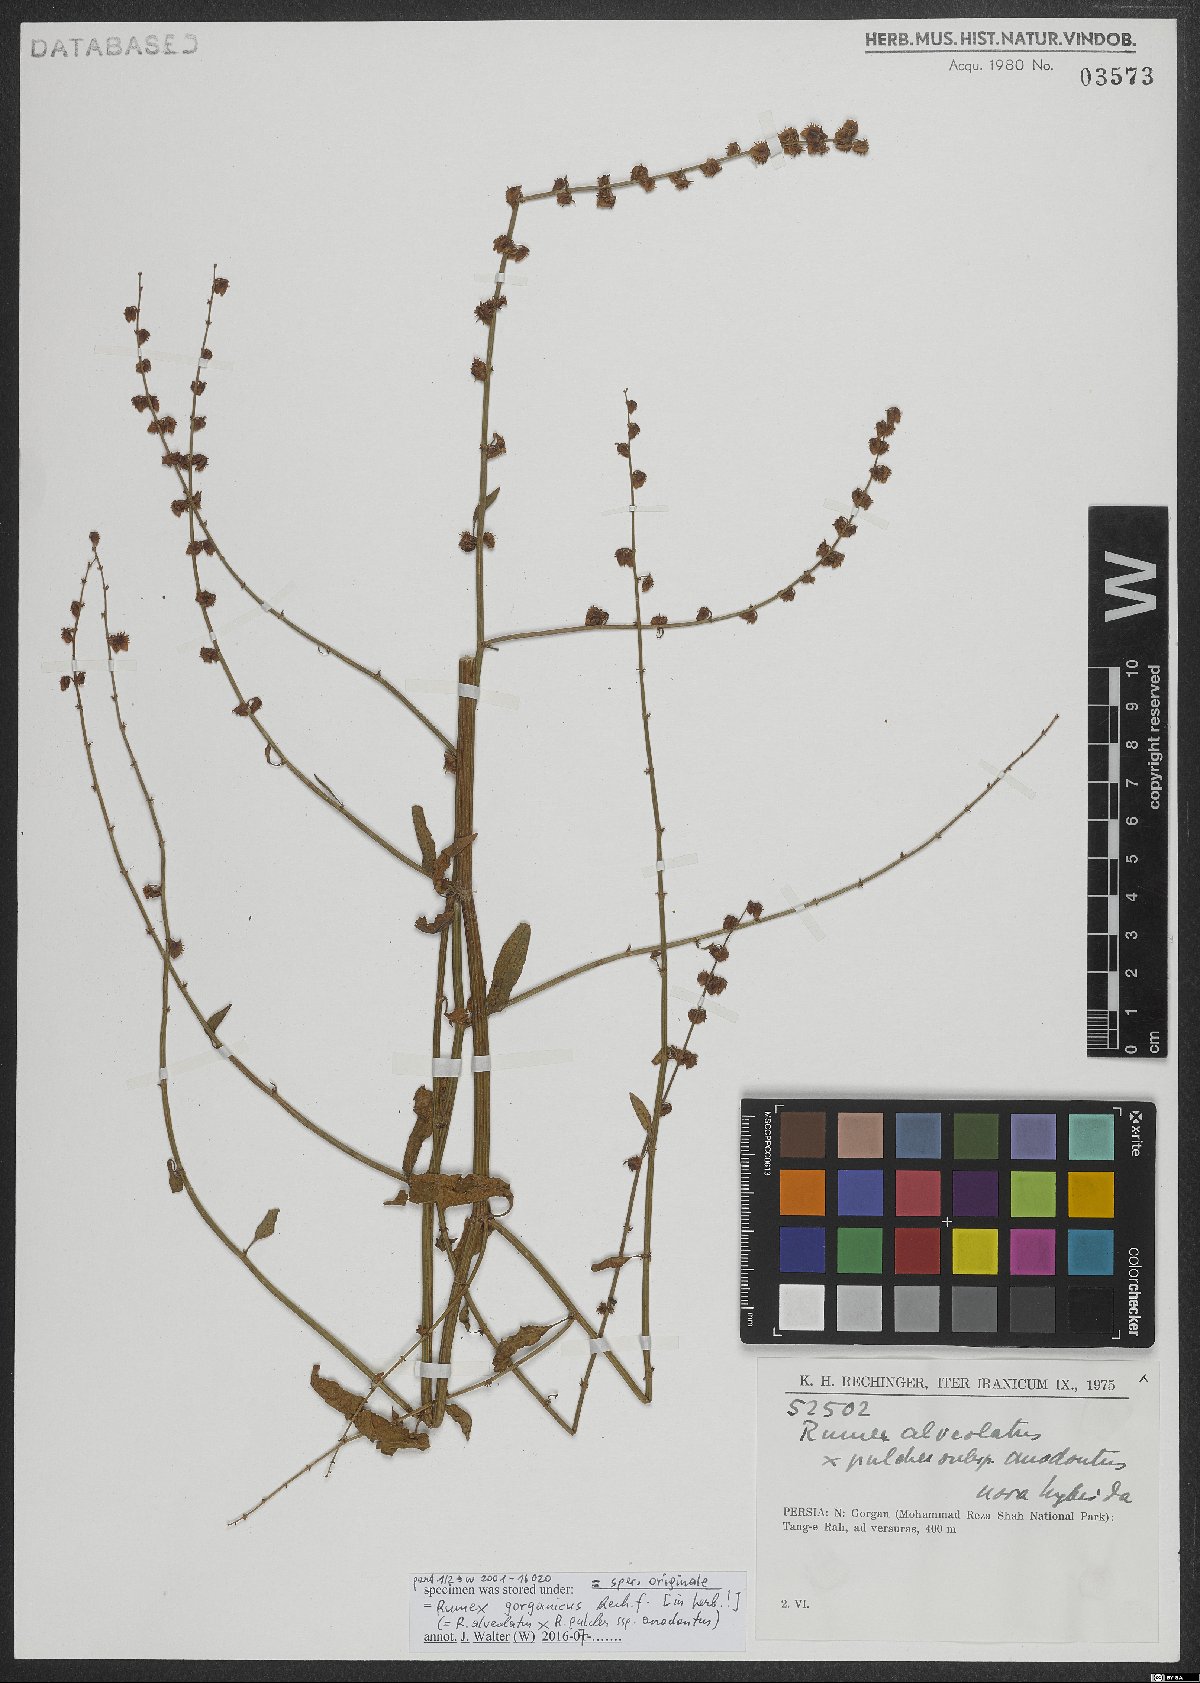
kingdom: Plantae
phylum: Tracheophyta
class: Magnoliopsida
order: Caryophyllales
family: Polygonaceae
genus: Rumex
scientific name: Rumex
